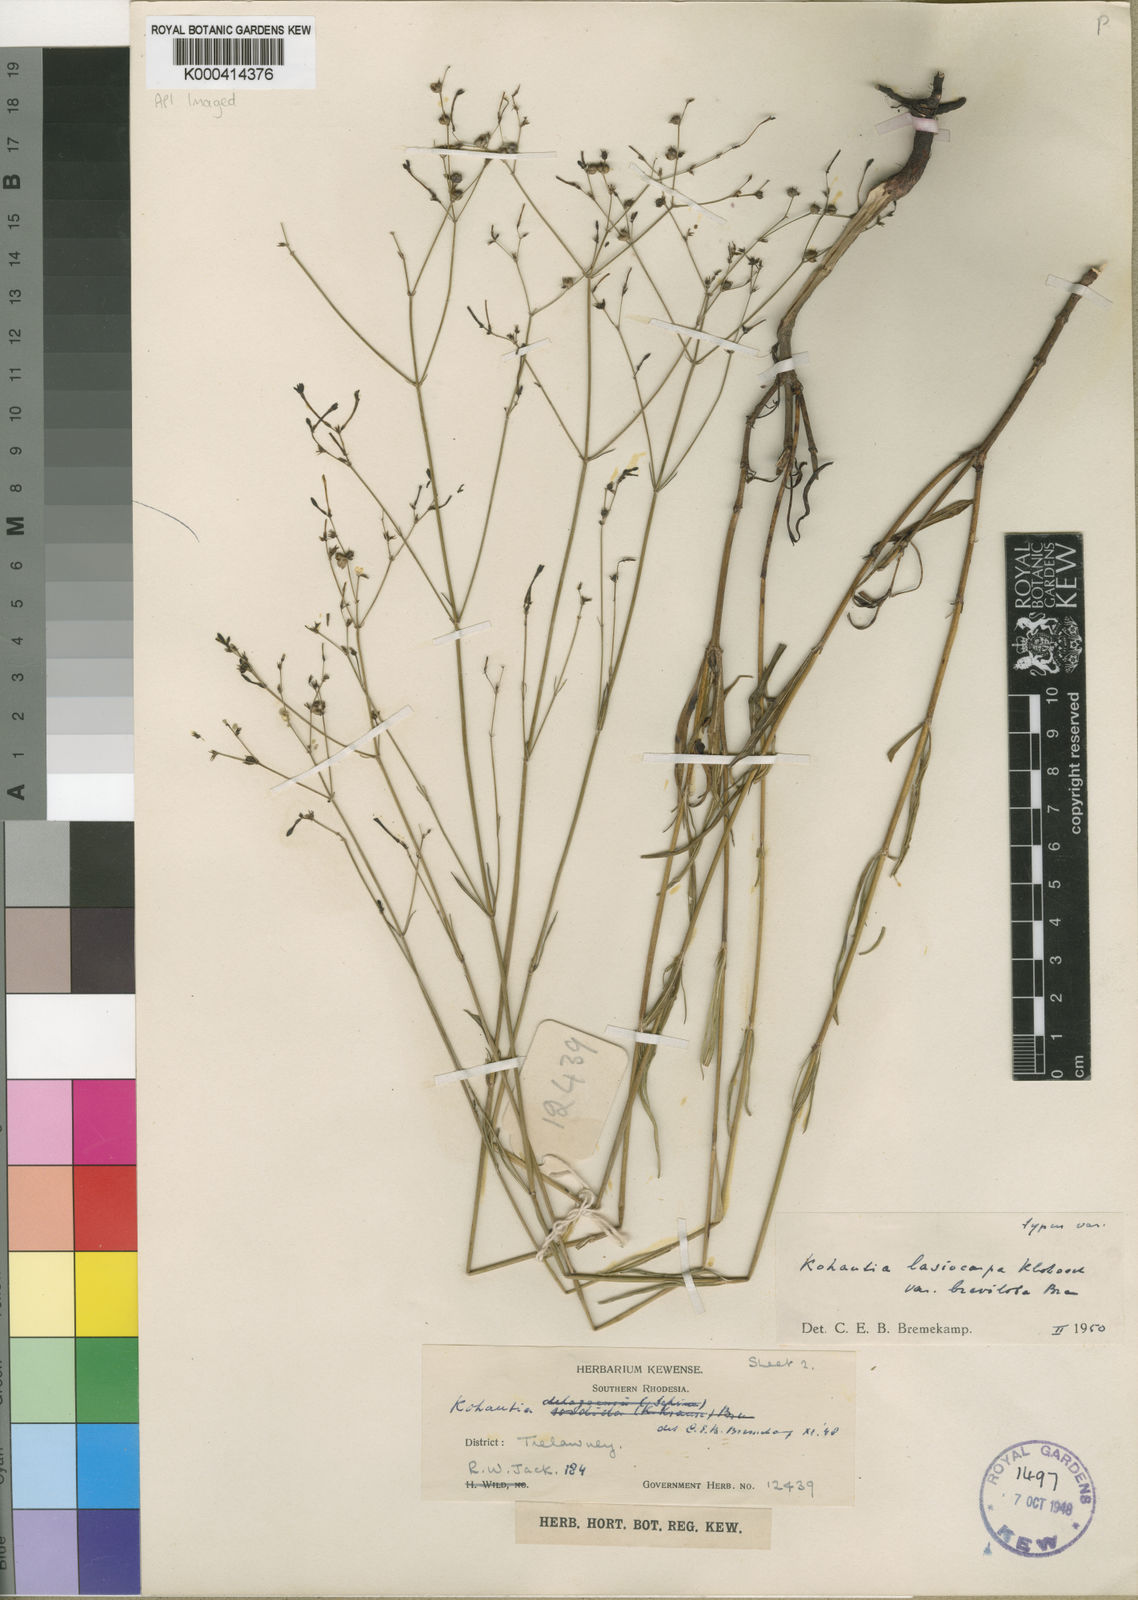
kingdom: Plantae
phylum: Tracheophyta
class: Magnoliopsida
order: Gentianales
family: Rubiaceae
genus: Kohautia
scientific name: Kohautia caespitosa
